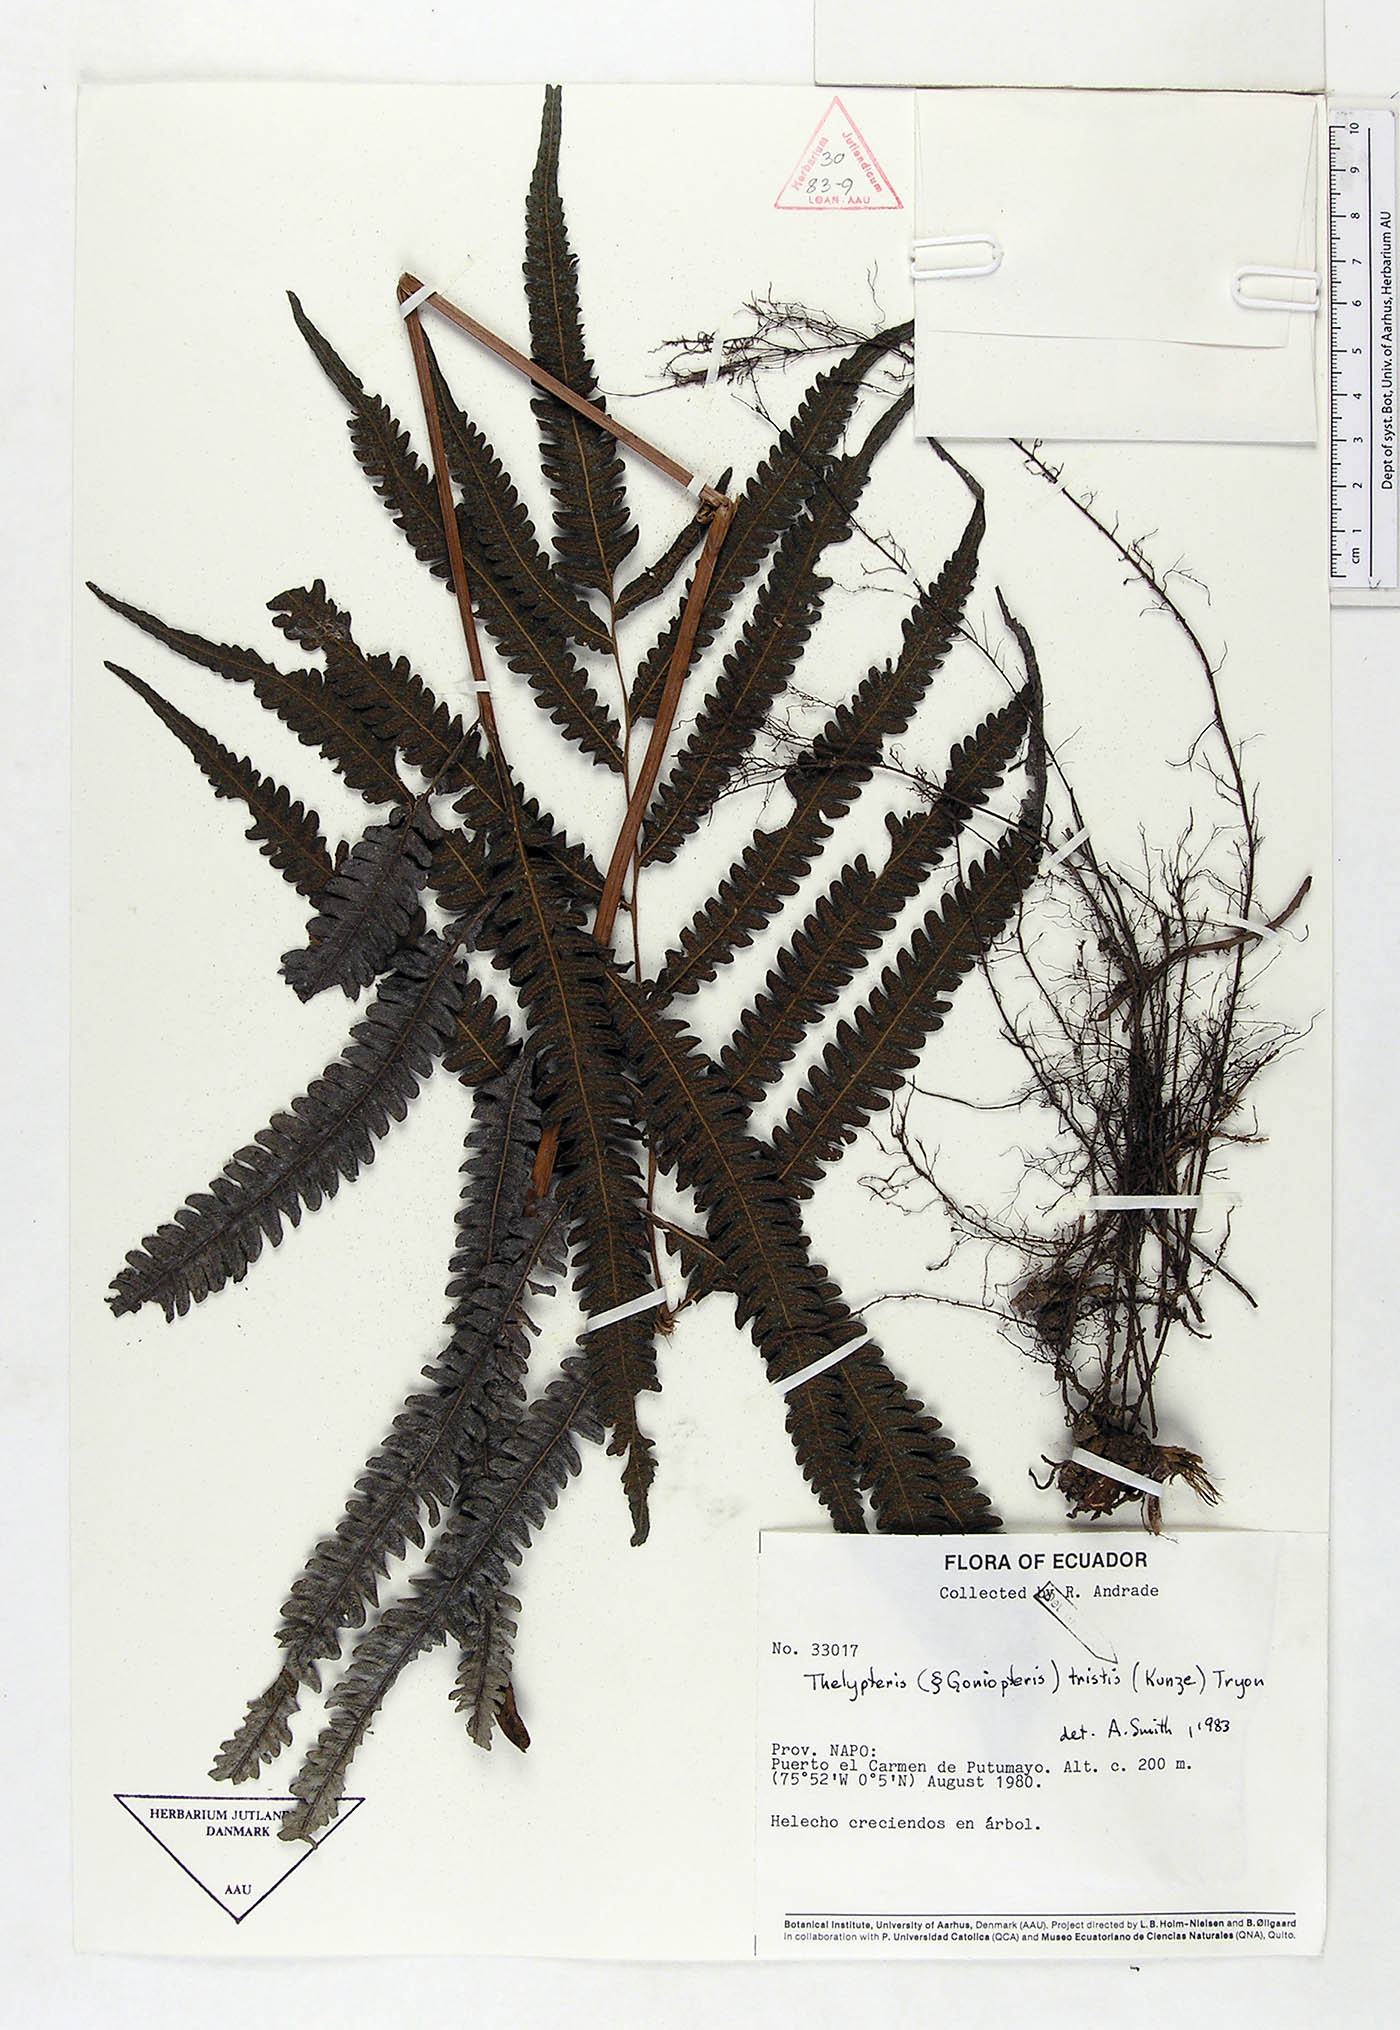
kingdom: Plantae
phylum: Tracheophyta
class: Polypodiopsida
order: Polypodiales
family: Thelypteridaceae
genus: Goniopteris
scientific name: Goniopteris tristis
